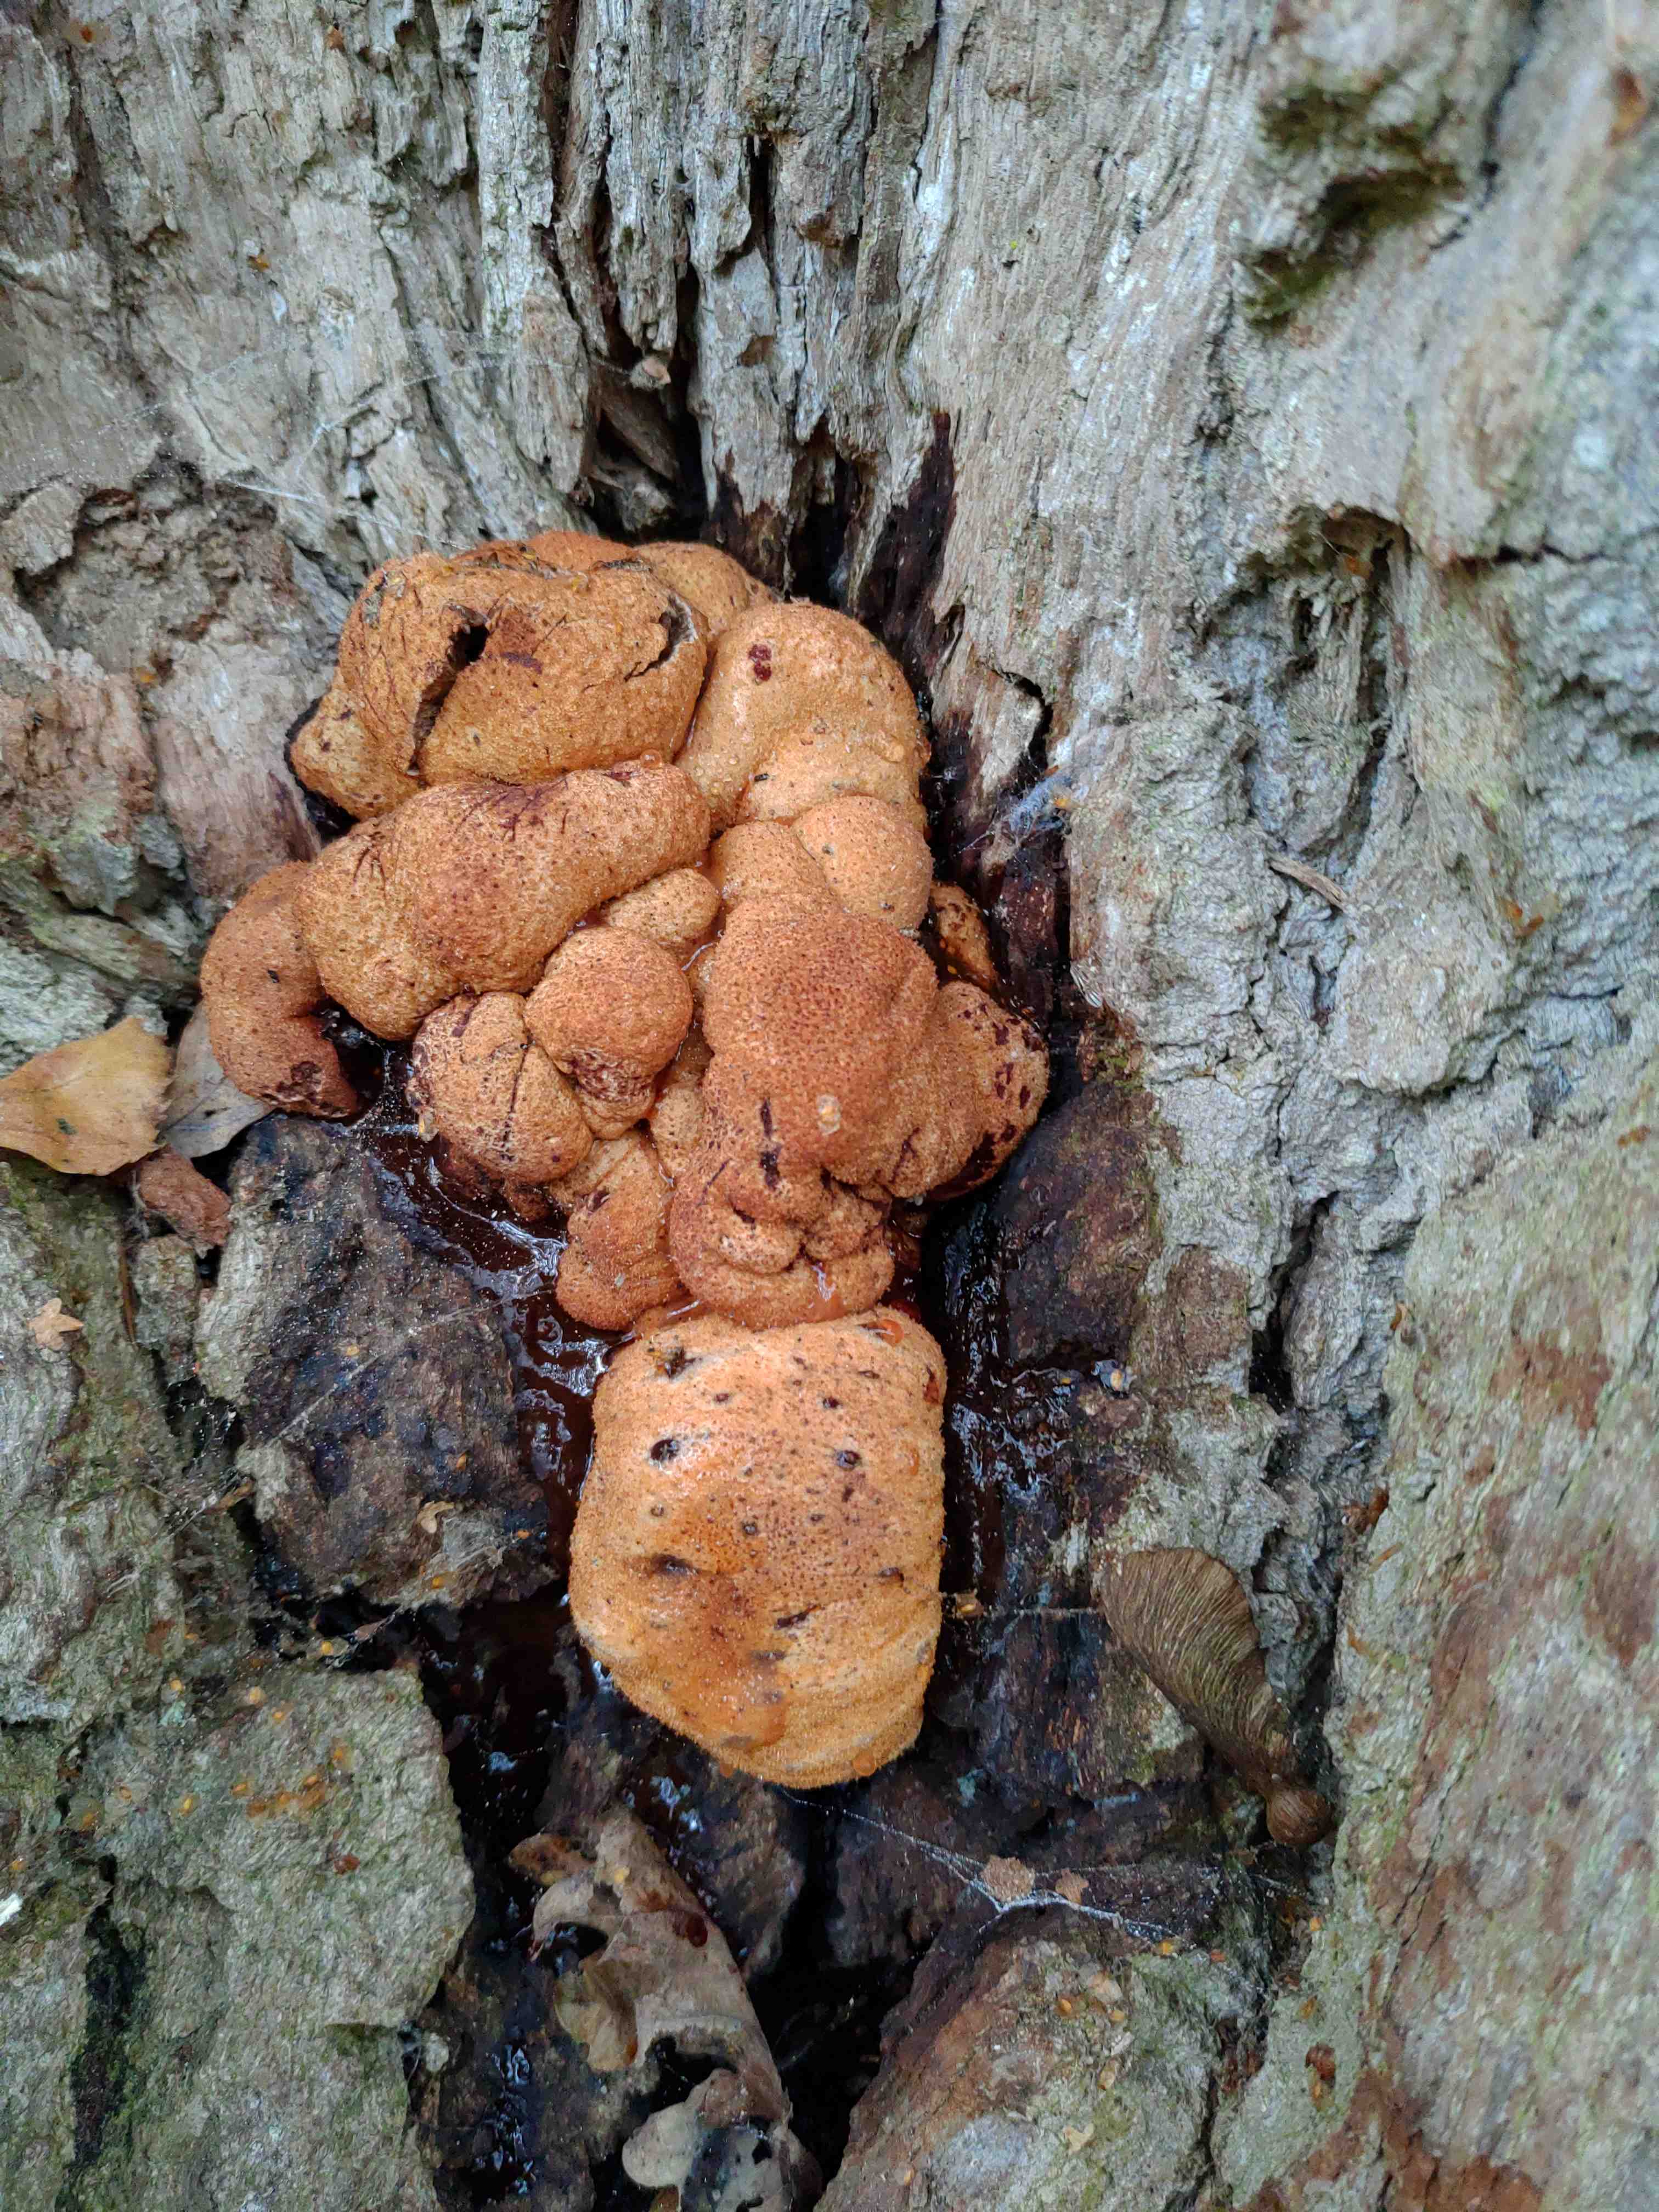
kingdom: Fungi
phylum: Basidiomycota
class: Agaricomycetes
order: Agaricales
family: Fistulinaceae
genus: Fistulina
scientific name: Fistulina hepatica
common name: oksetunge
